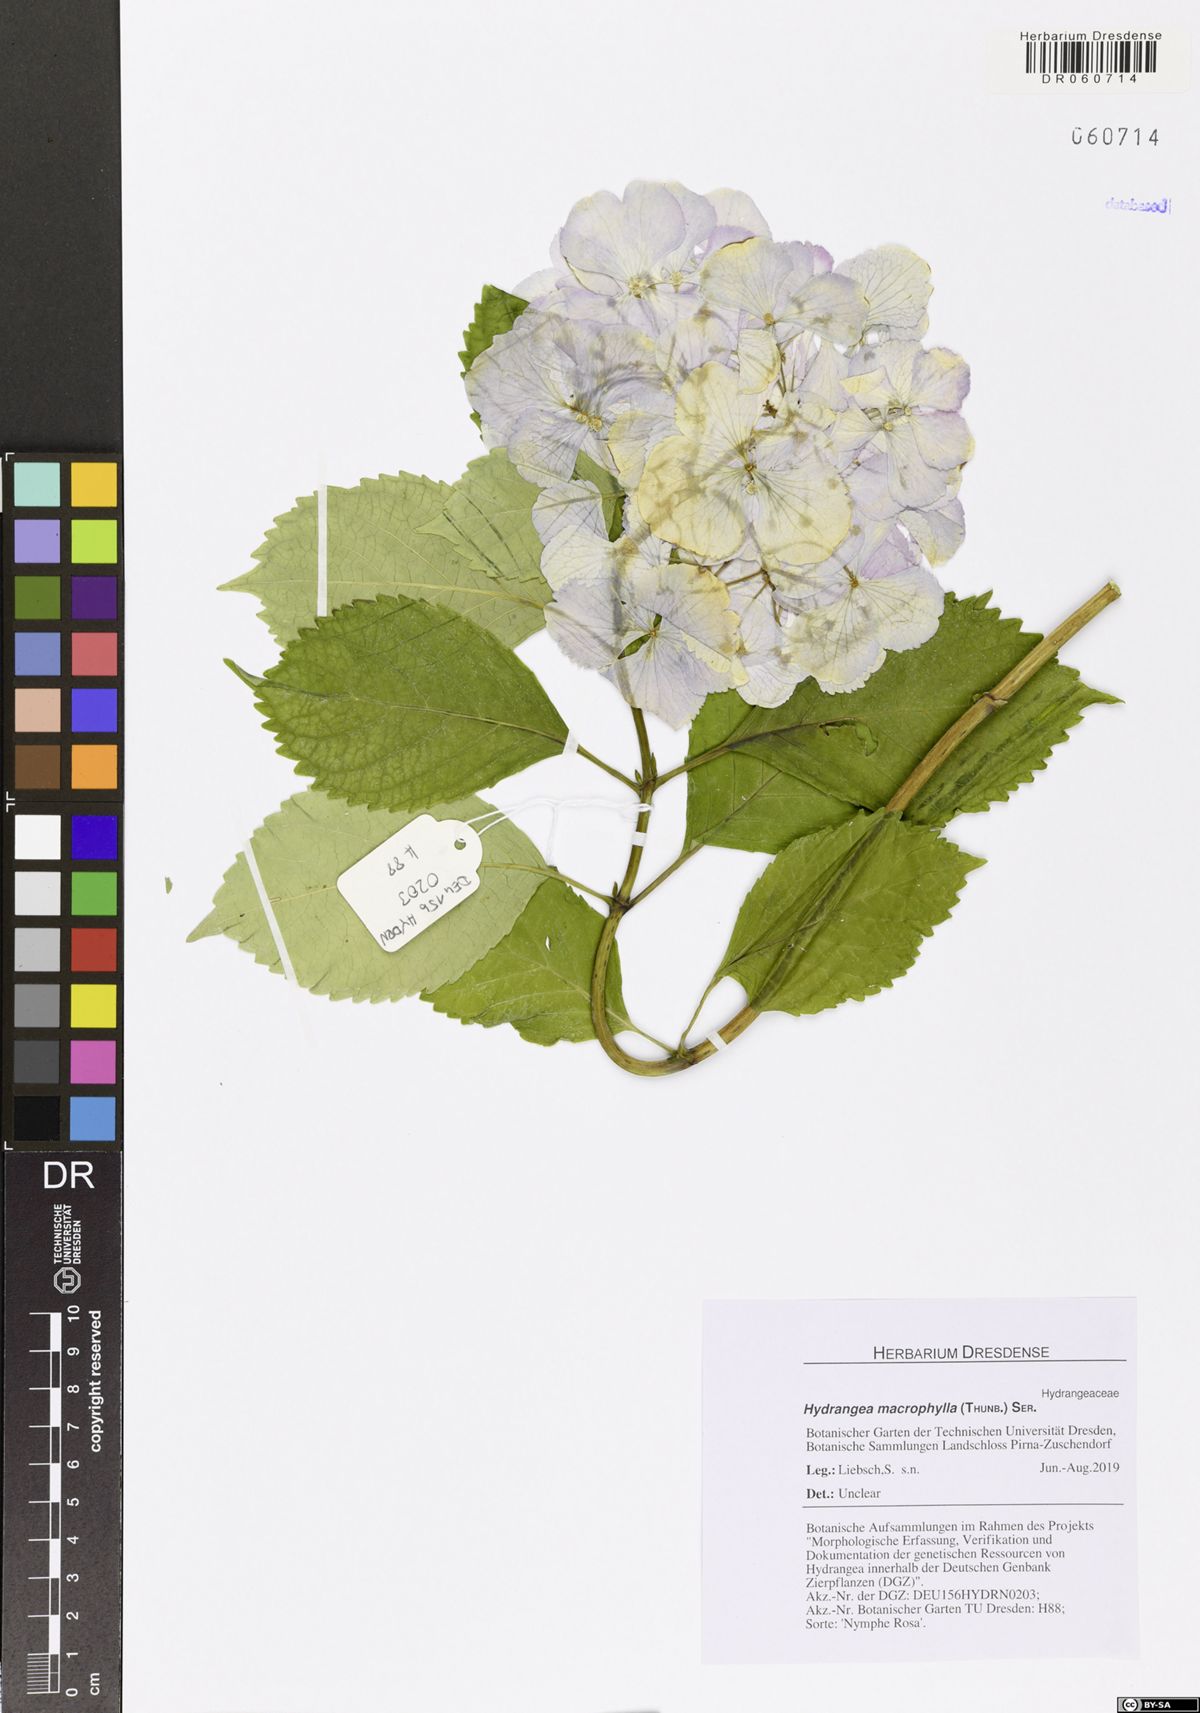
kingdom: Plantae
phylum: Tracheophyta
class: Magnoliopsida
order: Cornales
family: Hydrangeaceae
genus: Hydrangea
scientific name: Hydrangea macrophylla
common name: Hydrangea
